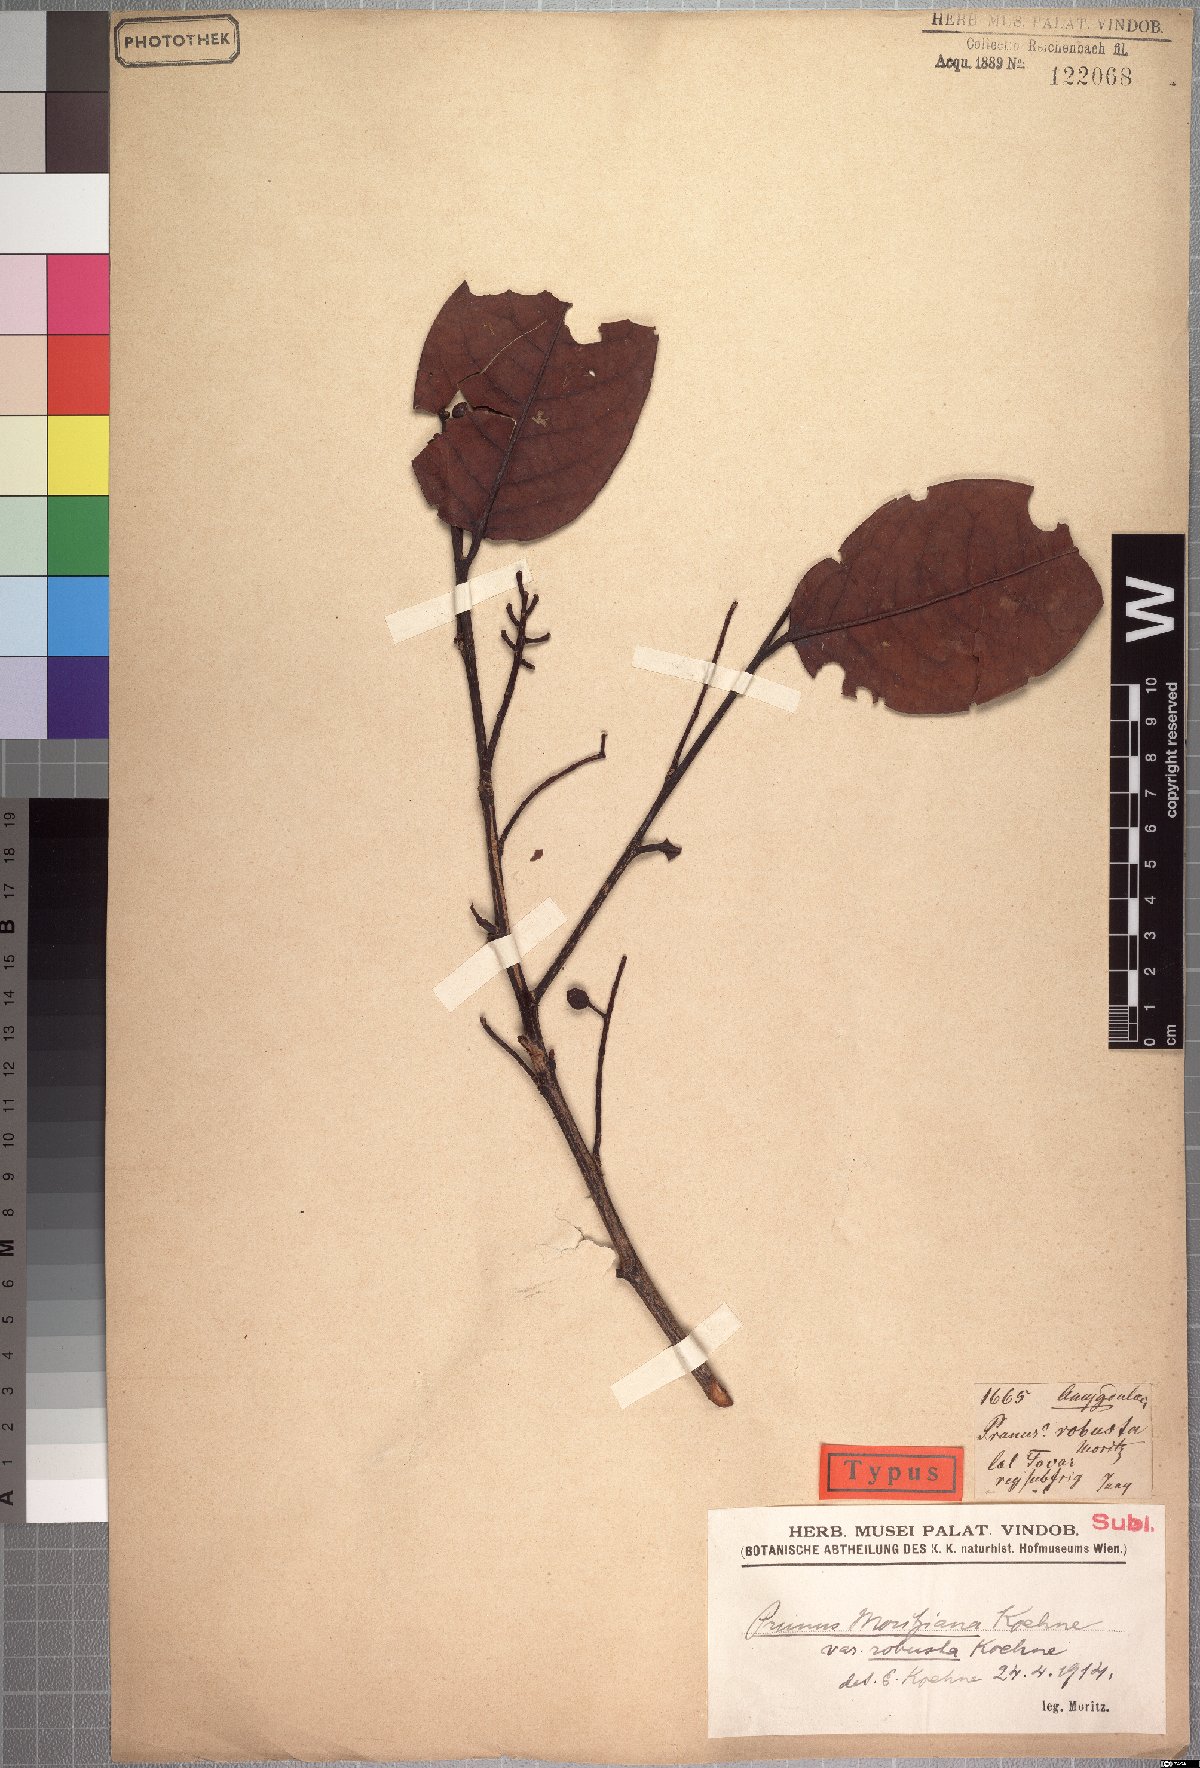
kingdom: Plantae
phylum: Tracheophyta
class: Magnoliopsida
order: Rosales
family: Rosaceae
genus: Prunus
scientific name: Prunus moritziana
